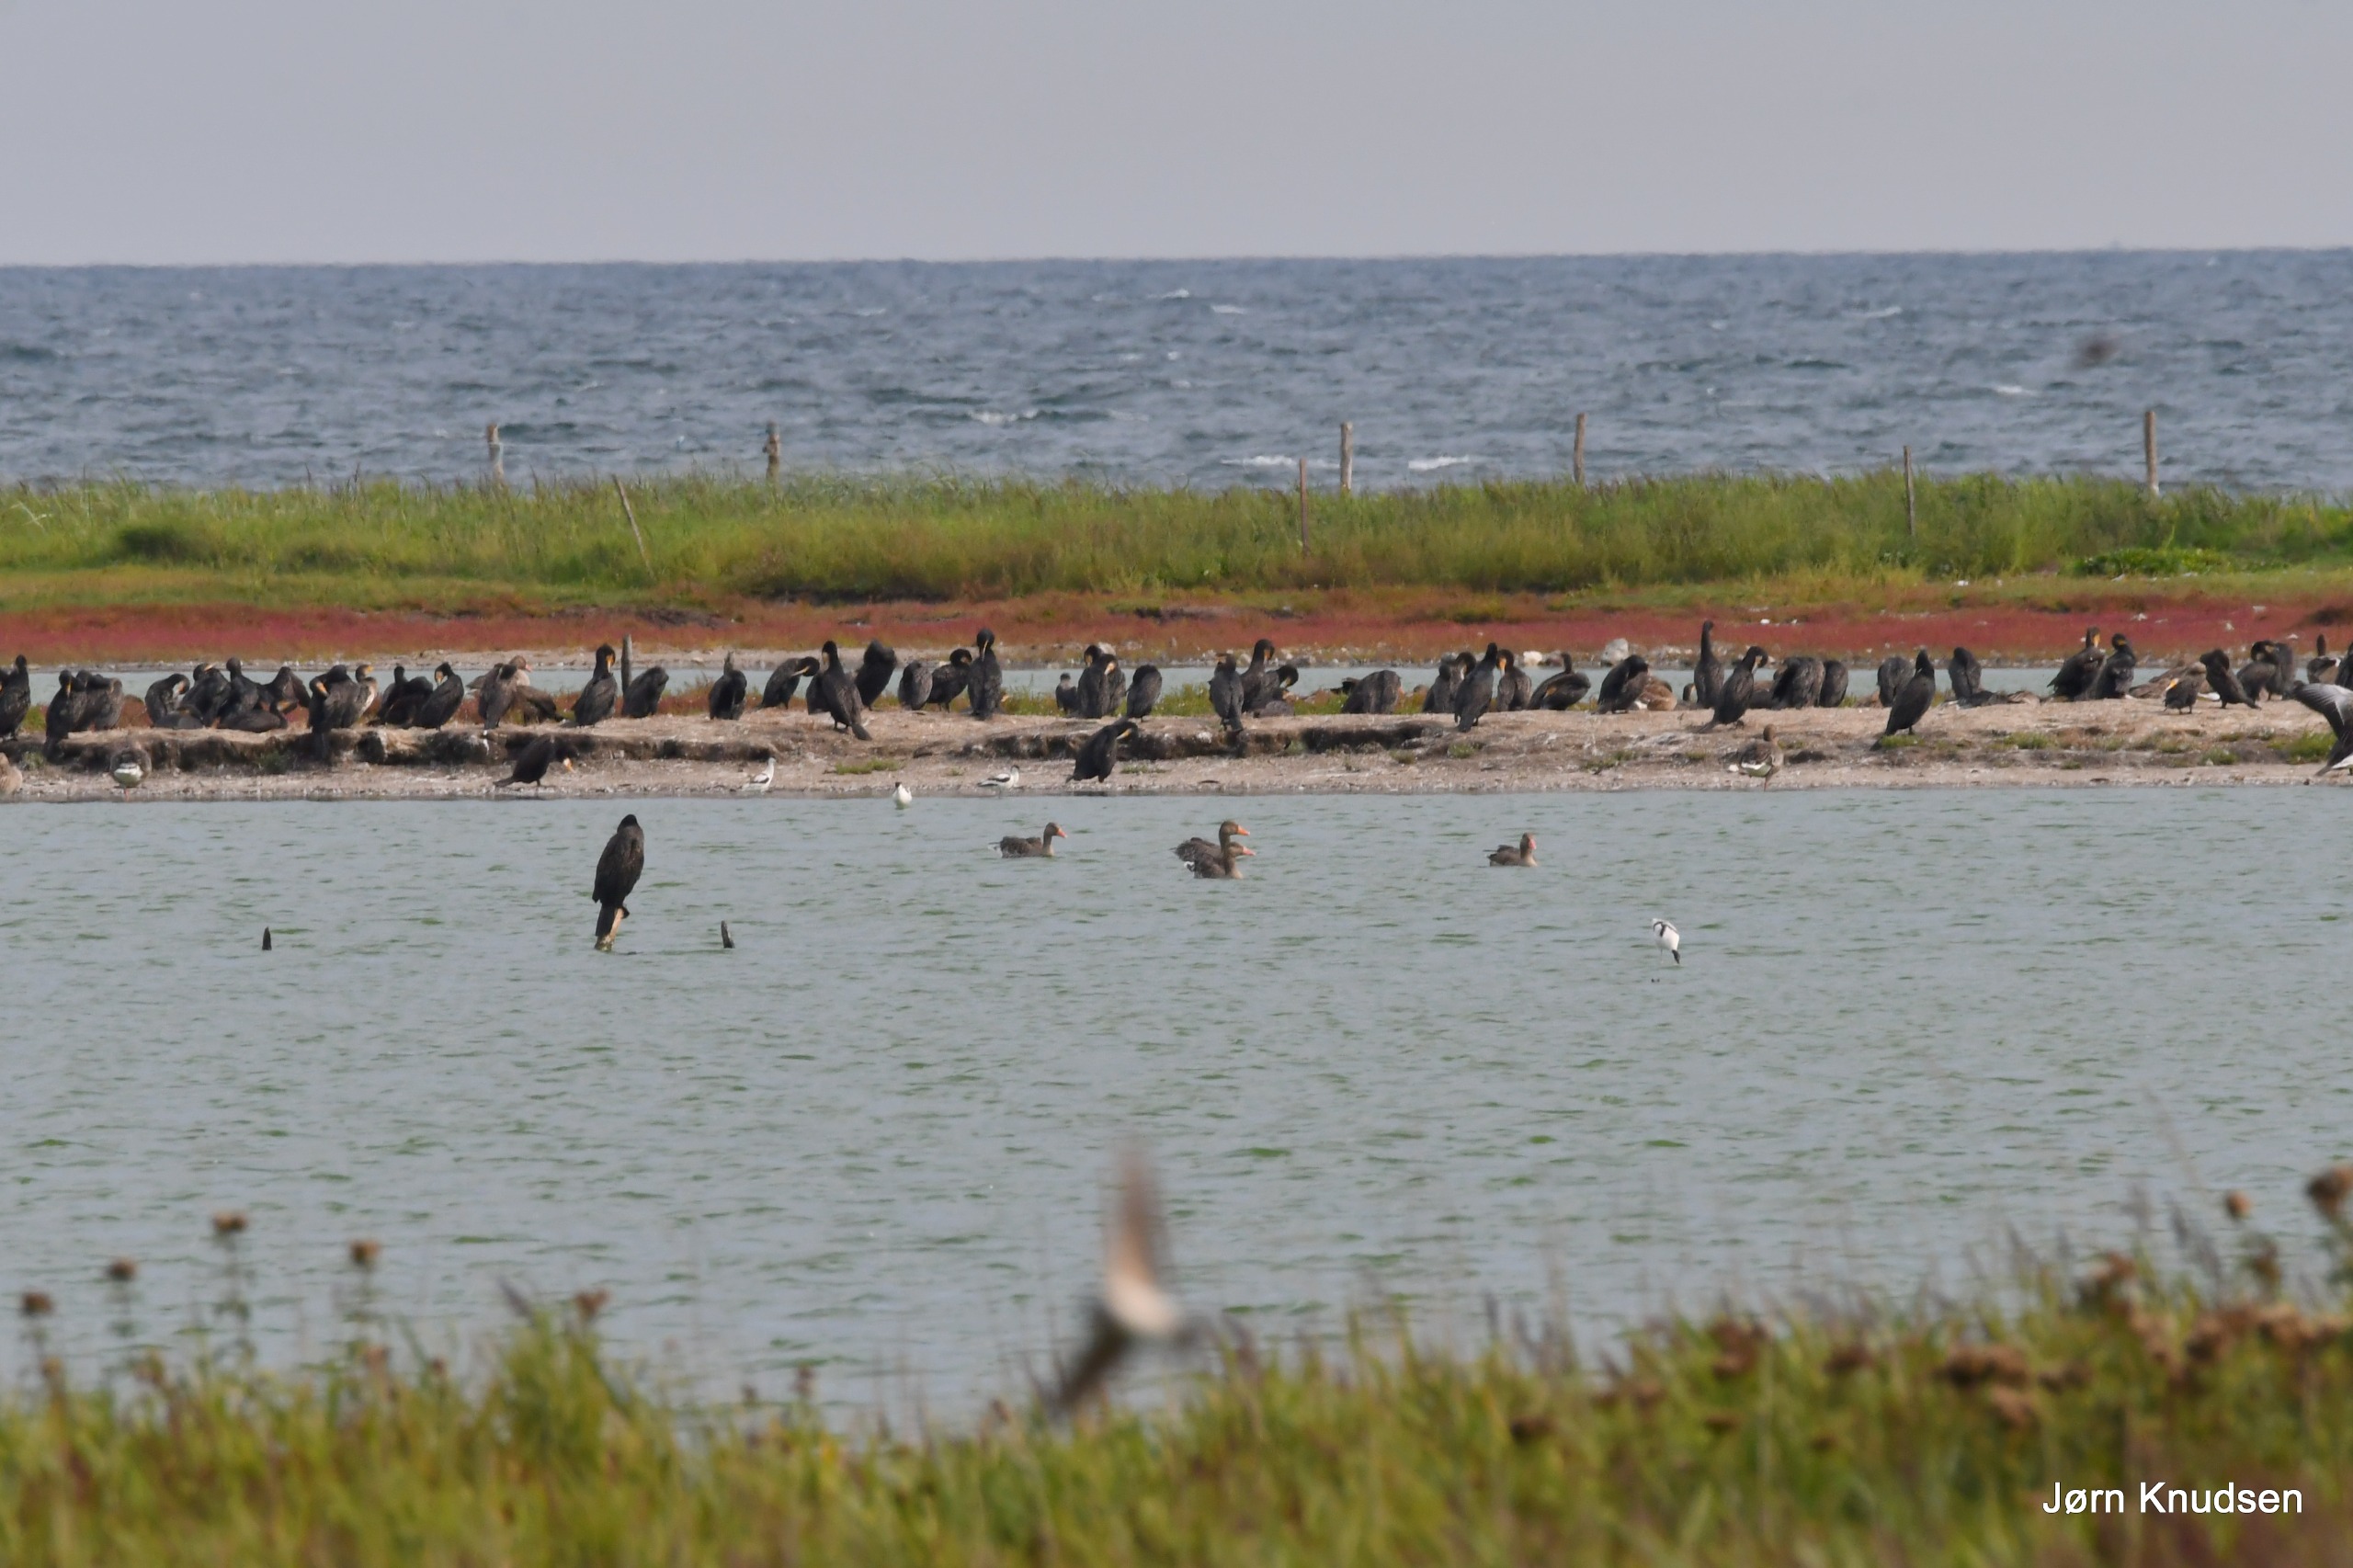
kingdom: Animalia
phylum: Chordata
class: Aves
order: Suliformes
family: Phalacrocoracidae
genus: Phalacrocorax
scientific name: Phalacrocorax carbo
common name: Skarv
